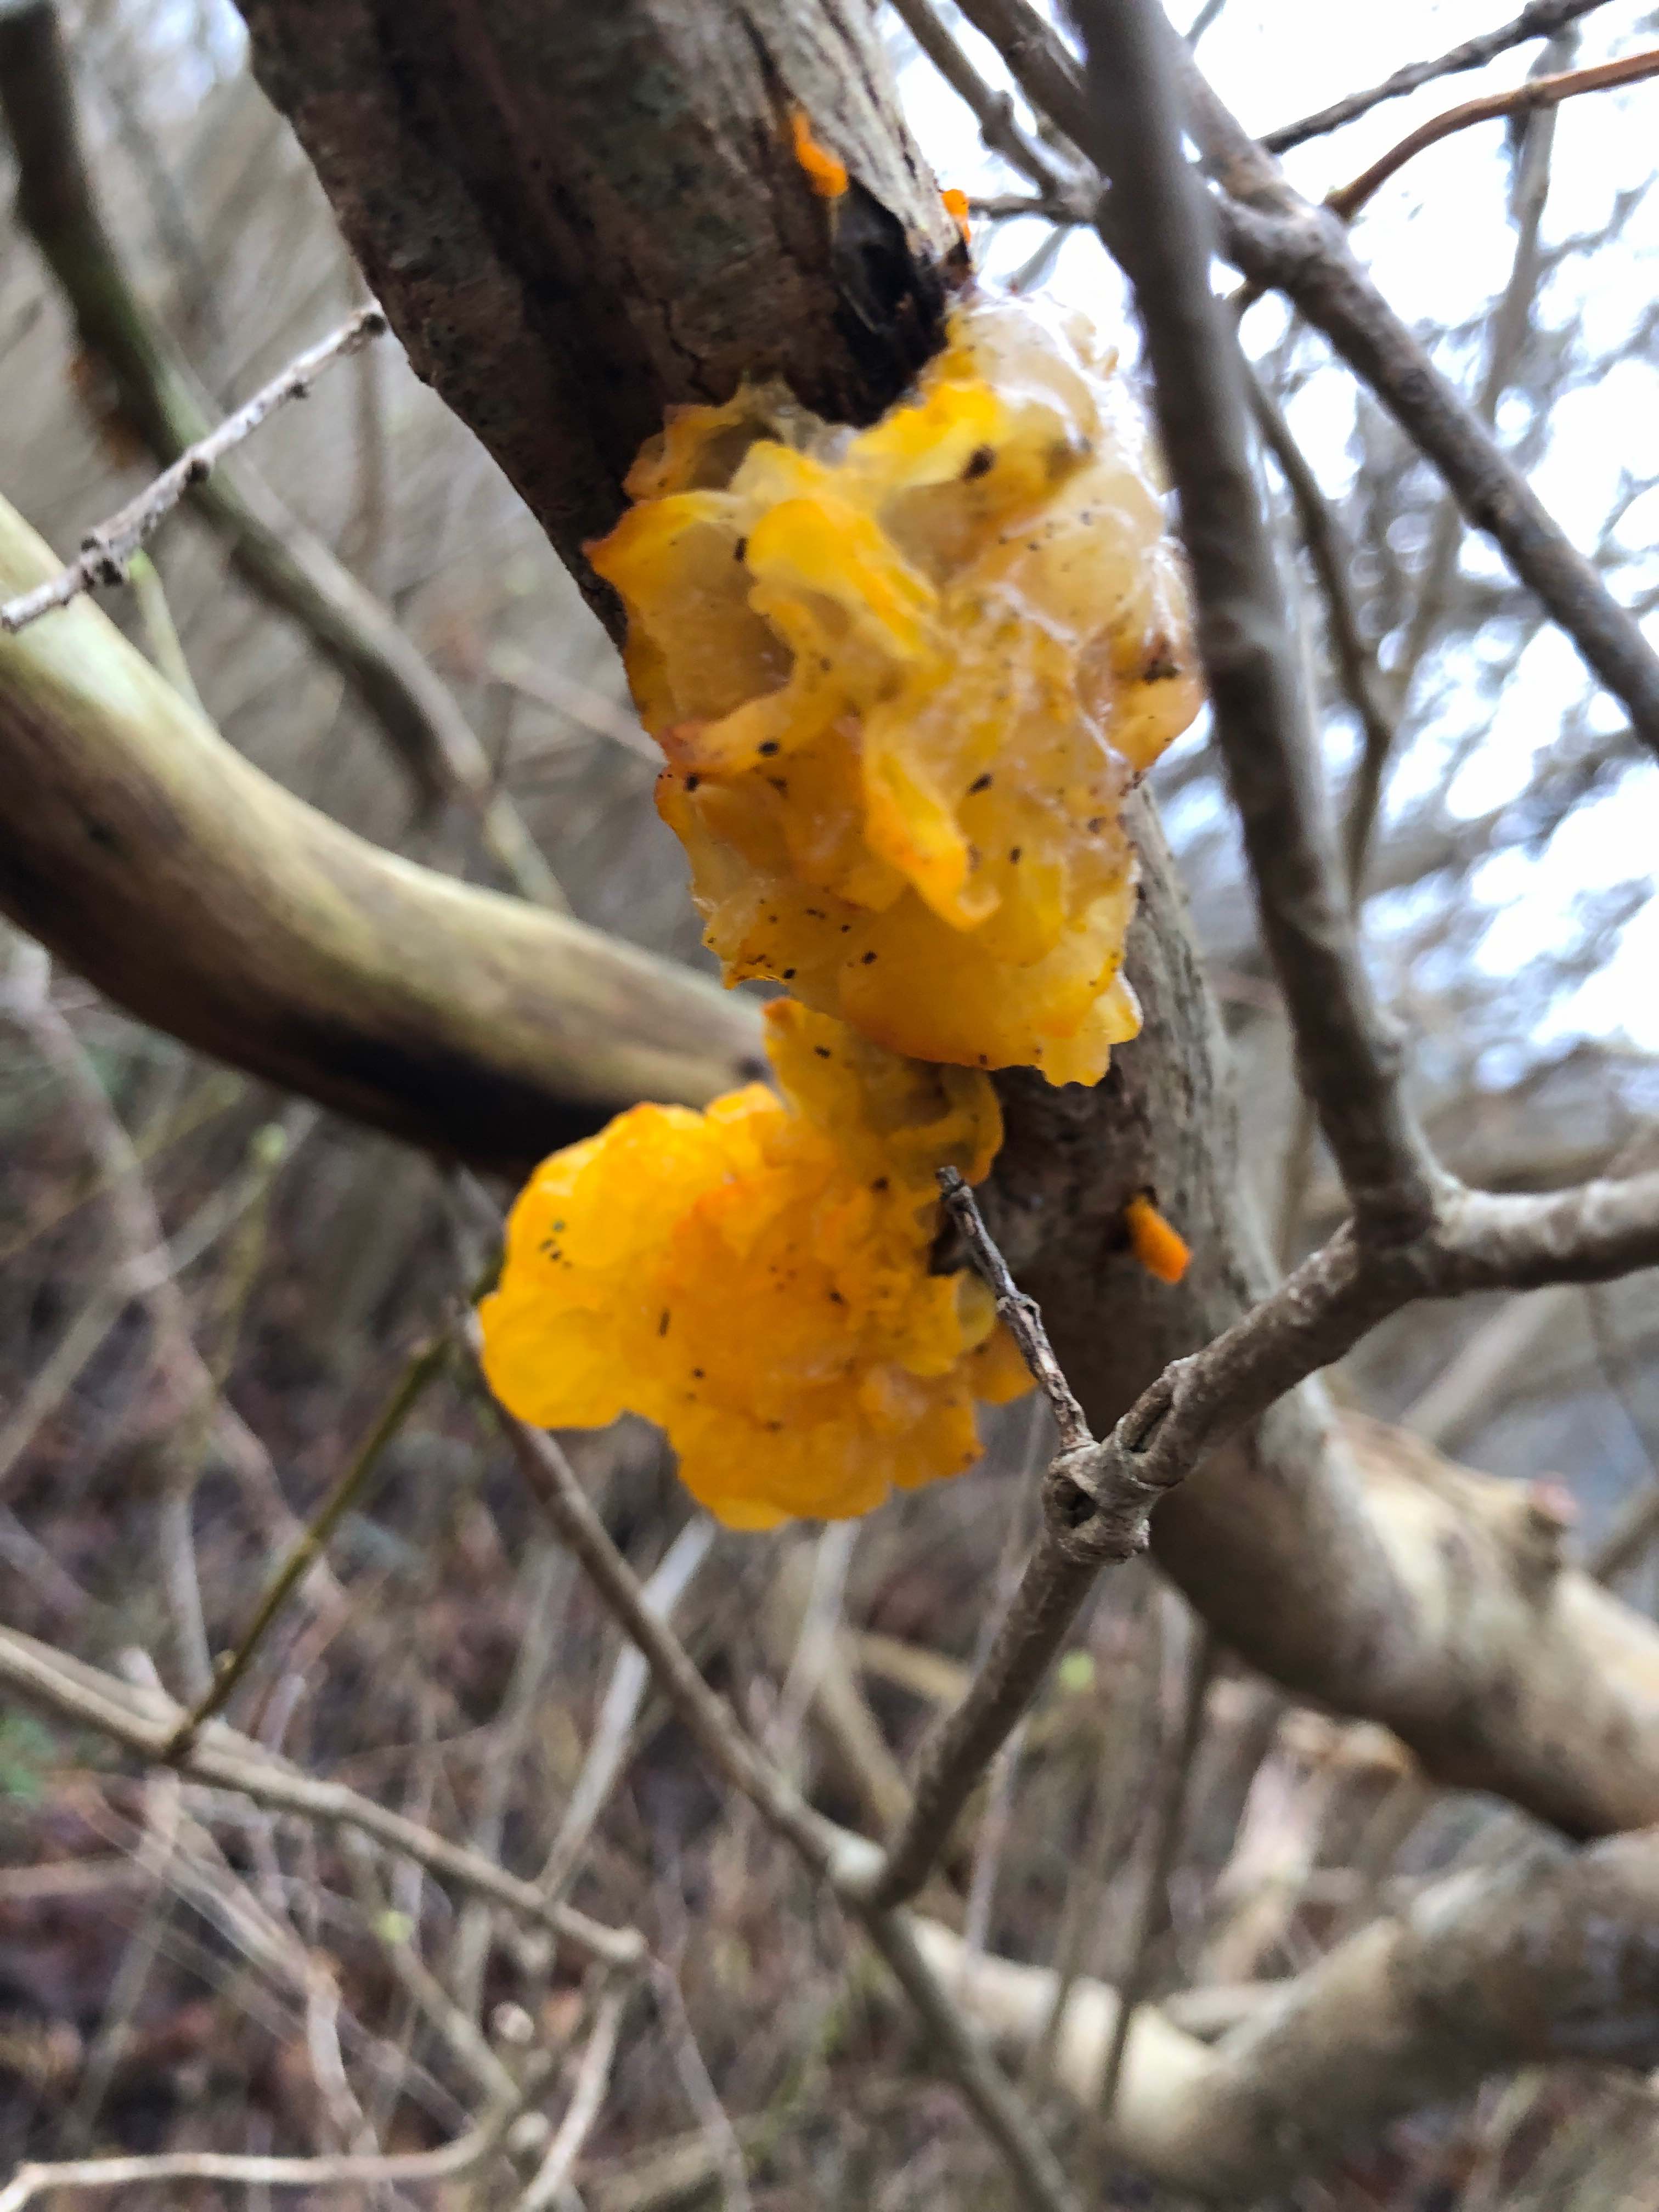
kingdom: Fungi
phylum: Basidiomycota
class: Tremellomycetes
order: Tremellales
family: Tremellaceae
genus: Tremella
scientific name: Tremella mesenterica
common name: gul bævresvamp
